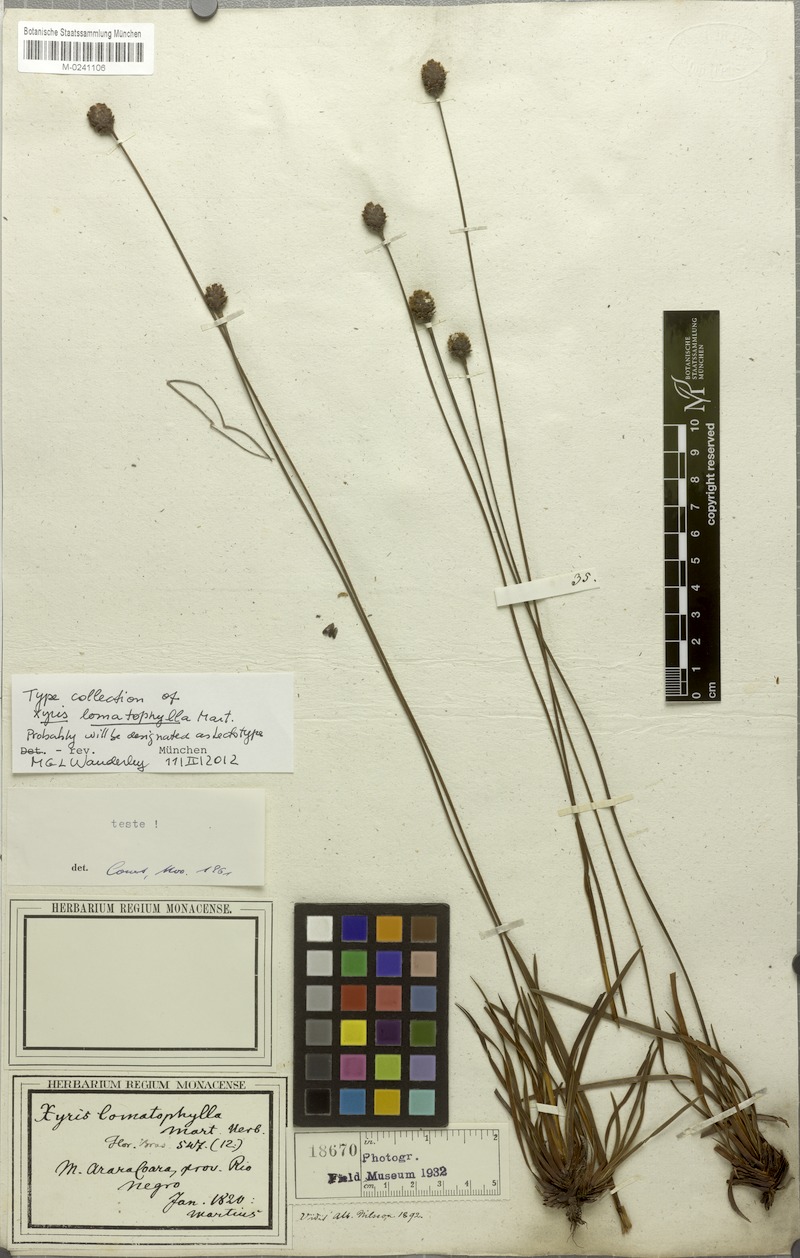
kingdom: Plantae
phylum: Tracheophyta
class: Liliopsida
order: Poales
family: Xyridaceae
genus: Xyris
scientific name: Xyris lomatophylla
